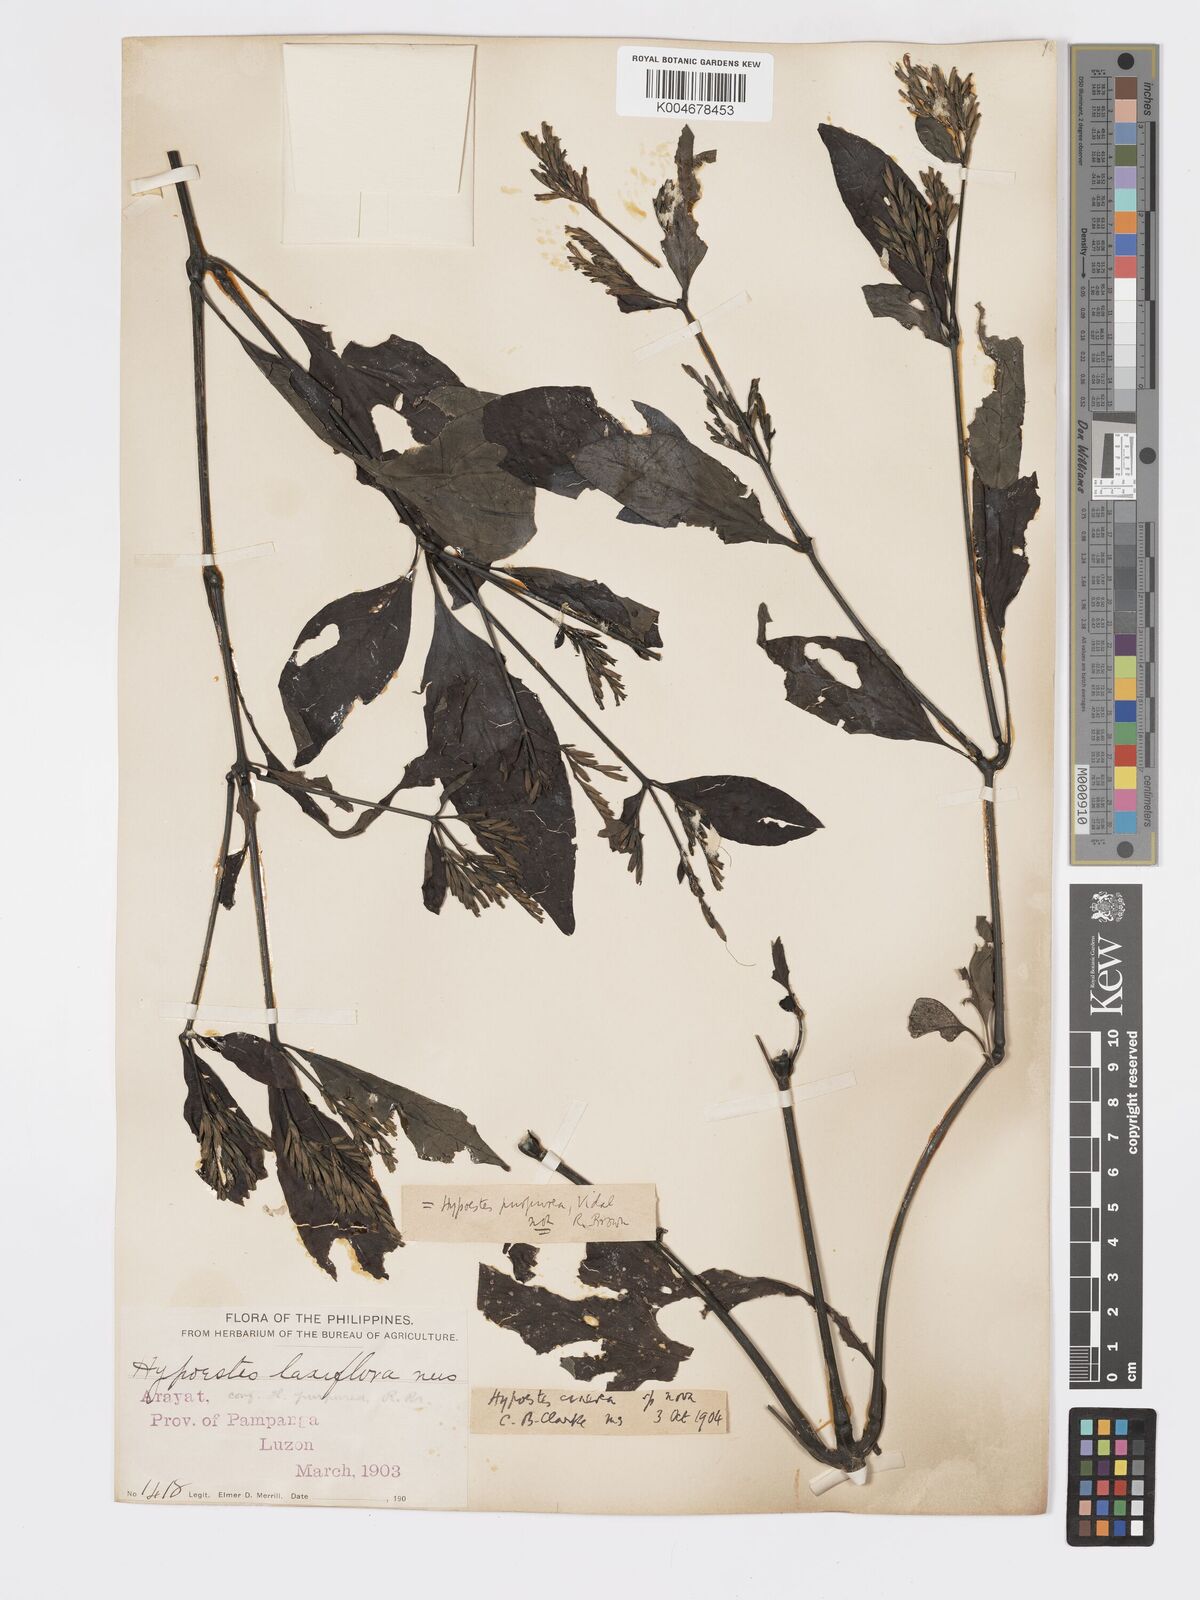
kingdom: Plantae
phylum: Tracheophyta
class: Magnoliopsida
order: Lamiales
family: Acanthaceae
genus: Hypoestes
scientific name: Hypoestes
